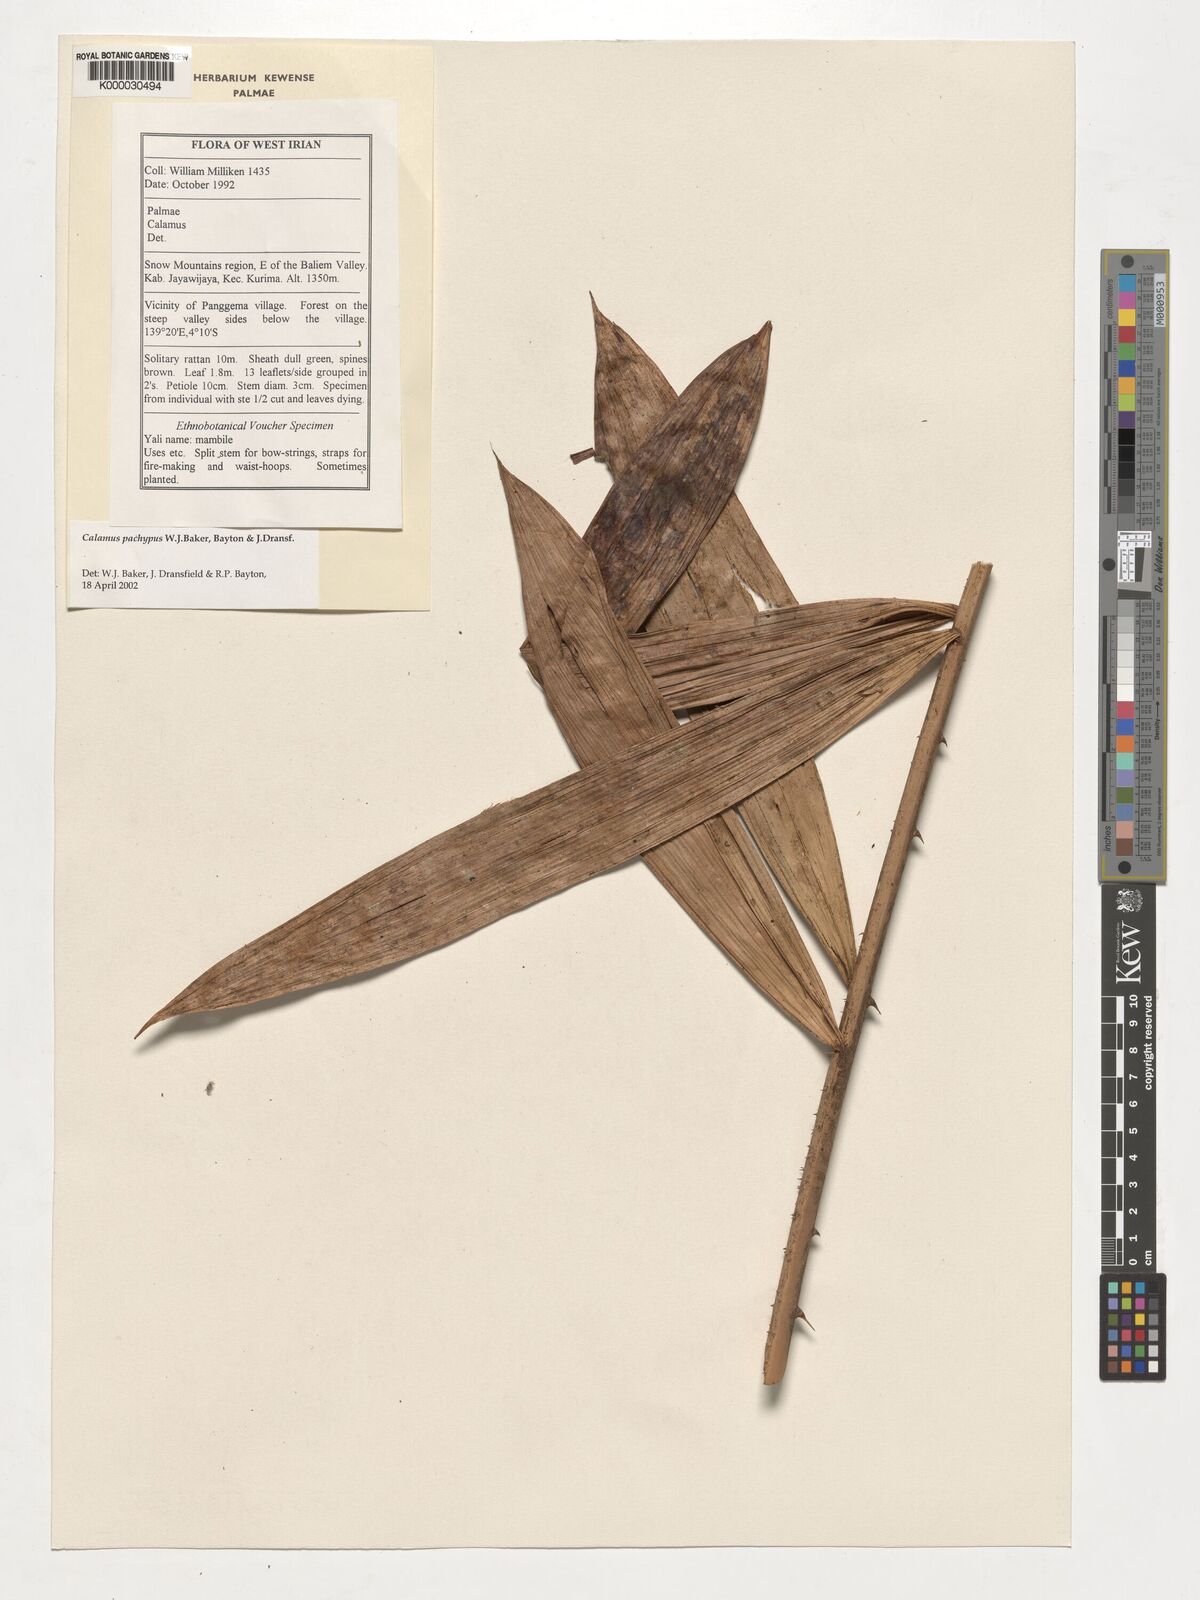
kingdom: Plantae
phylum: Tracheophyta
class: Liliopsida
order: Arecales
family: Arecaceae
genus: Calamus
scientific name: Calamus
